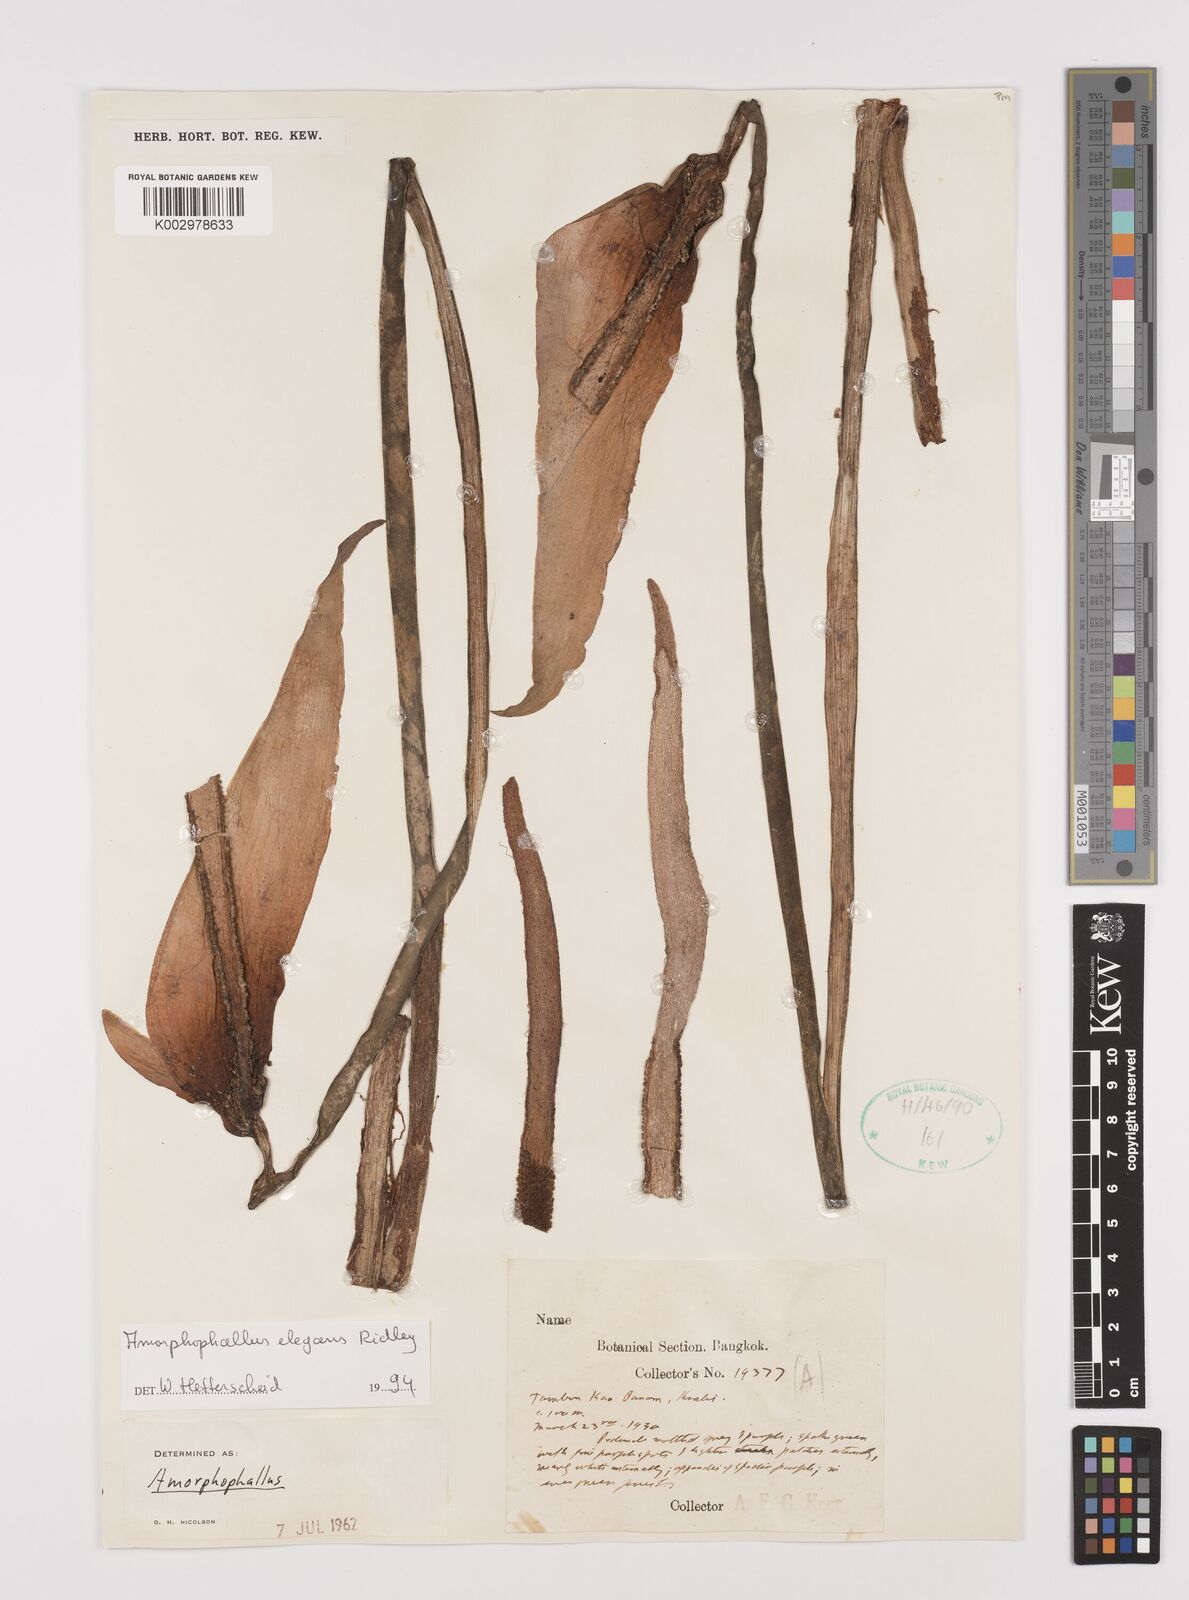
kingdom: Plantae
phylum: Tracheophyta
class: Liliopsida
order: Alismatales
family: Araceae
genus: Amorphophallus
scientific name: Amorphophallus elegans
